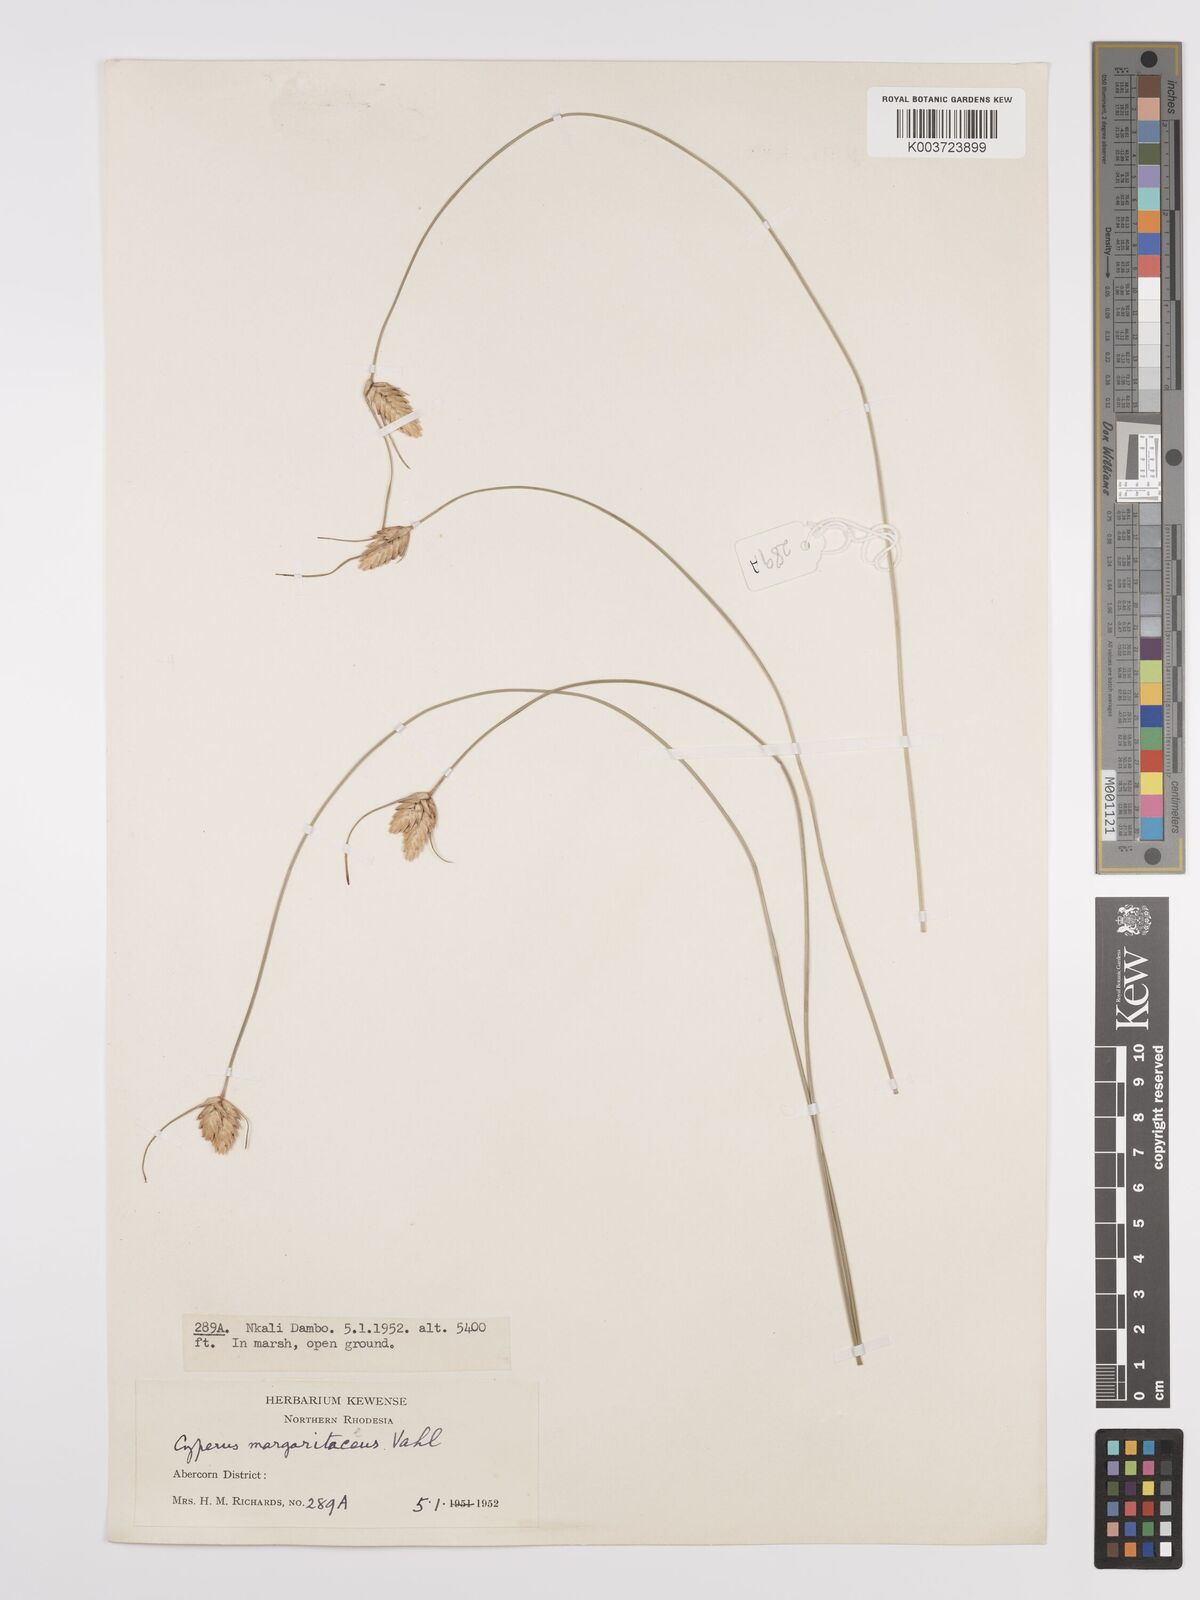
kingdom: Plantae
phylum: Tracheophyta
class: Liliopsida
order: Poales
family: Cyperaceae
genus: Cyperus
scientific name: Cyperus margaritaceus
